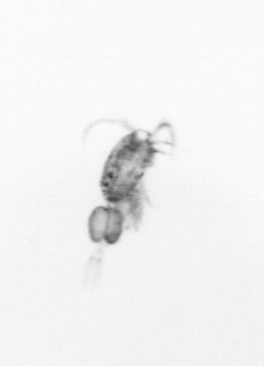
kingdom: Animalia
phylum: Arthropoda
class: Copepoda
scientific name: Copepoda
